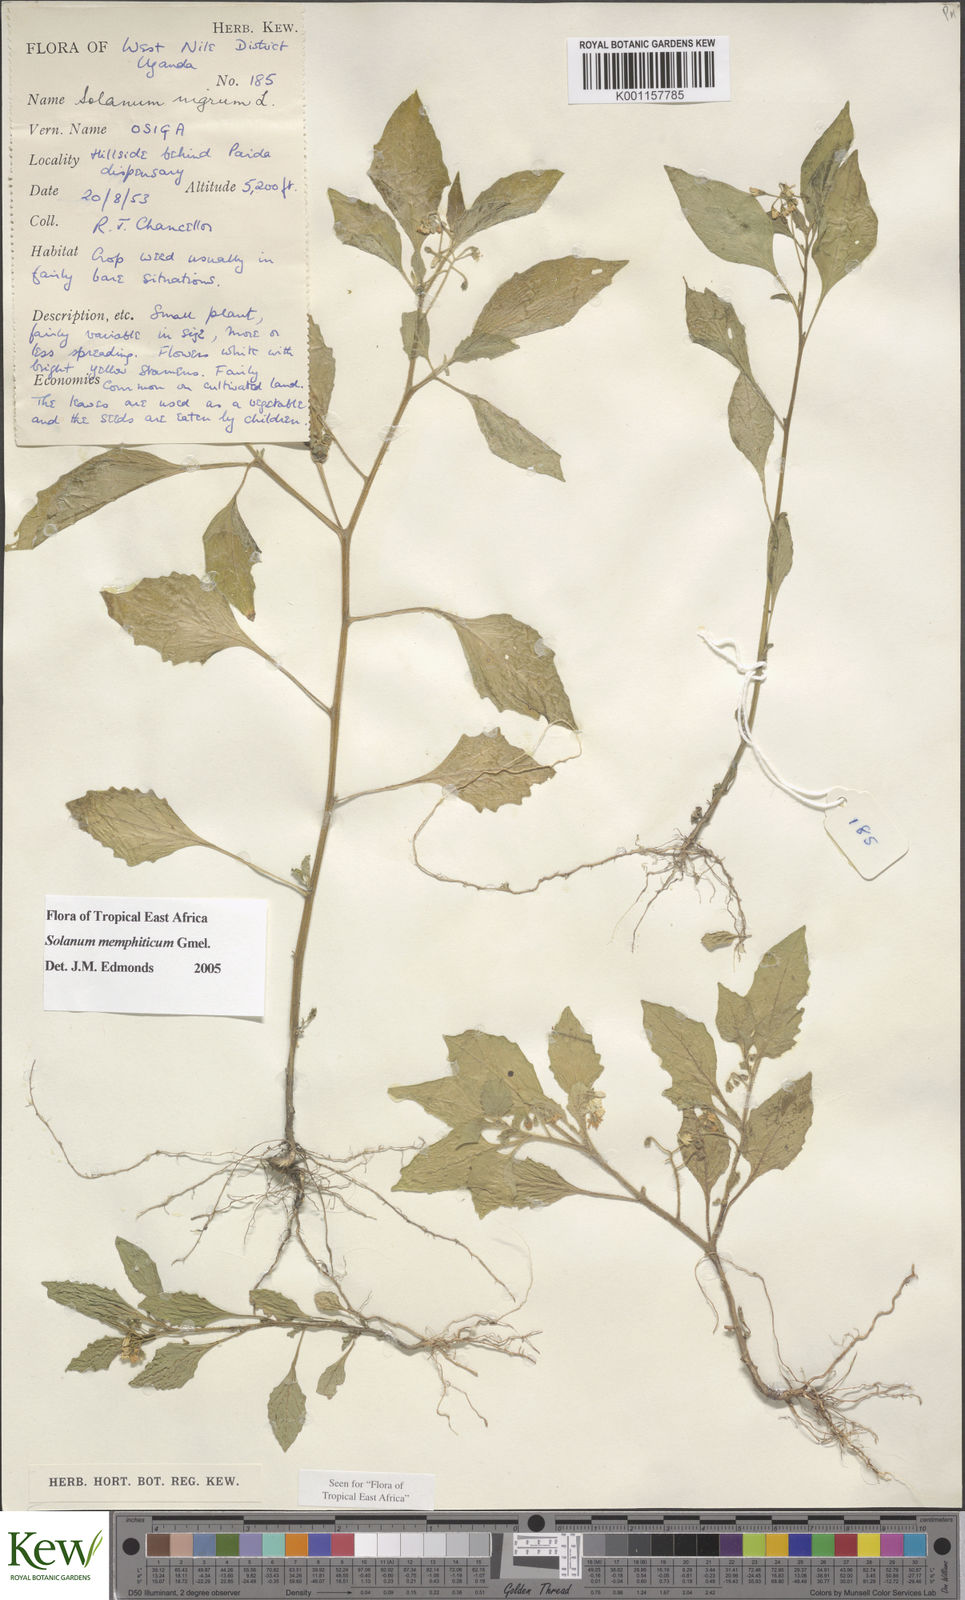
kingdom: Plantae
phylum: Tracheophyta
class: Magnoliopsida
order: Solanales
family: Solanaceae
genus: Solanum
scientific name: Solanum memphiticum
